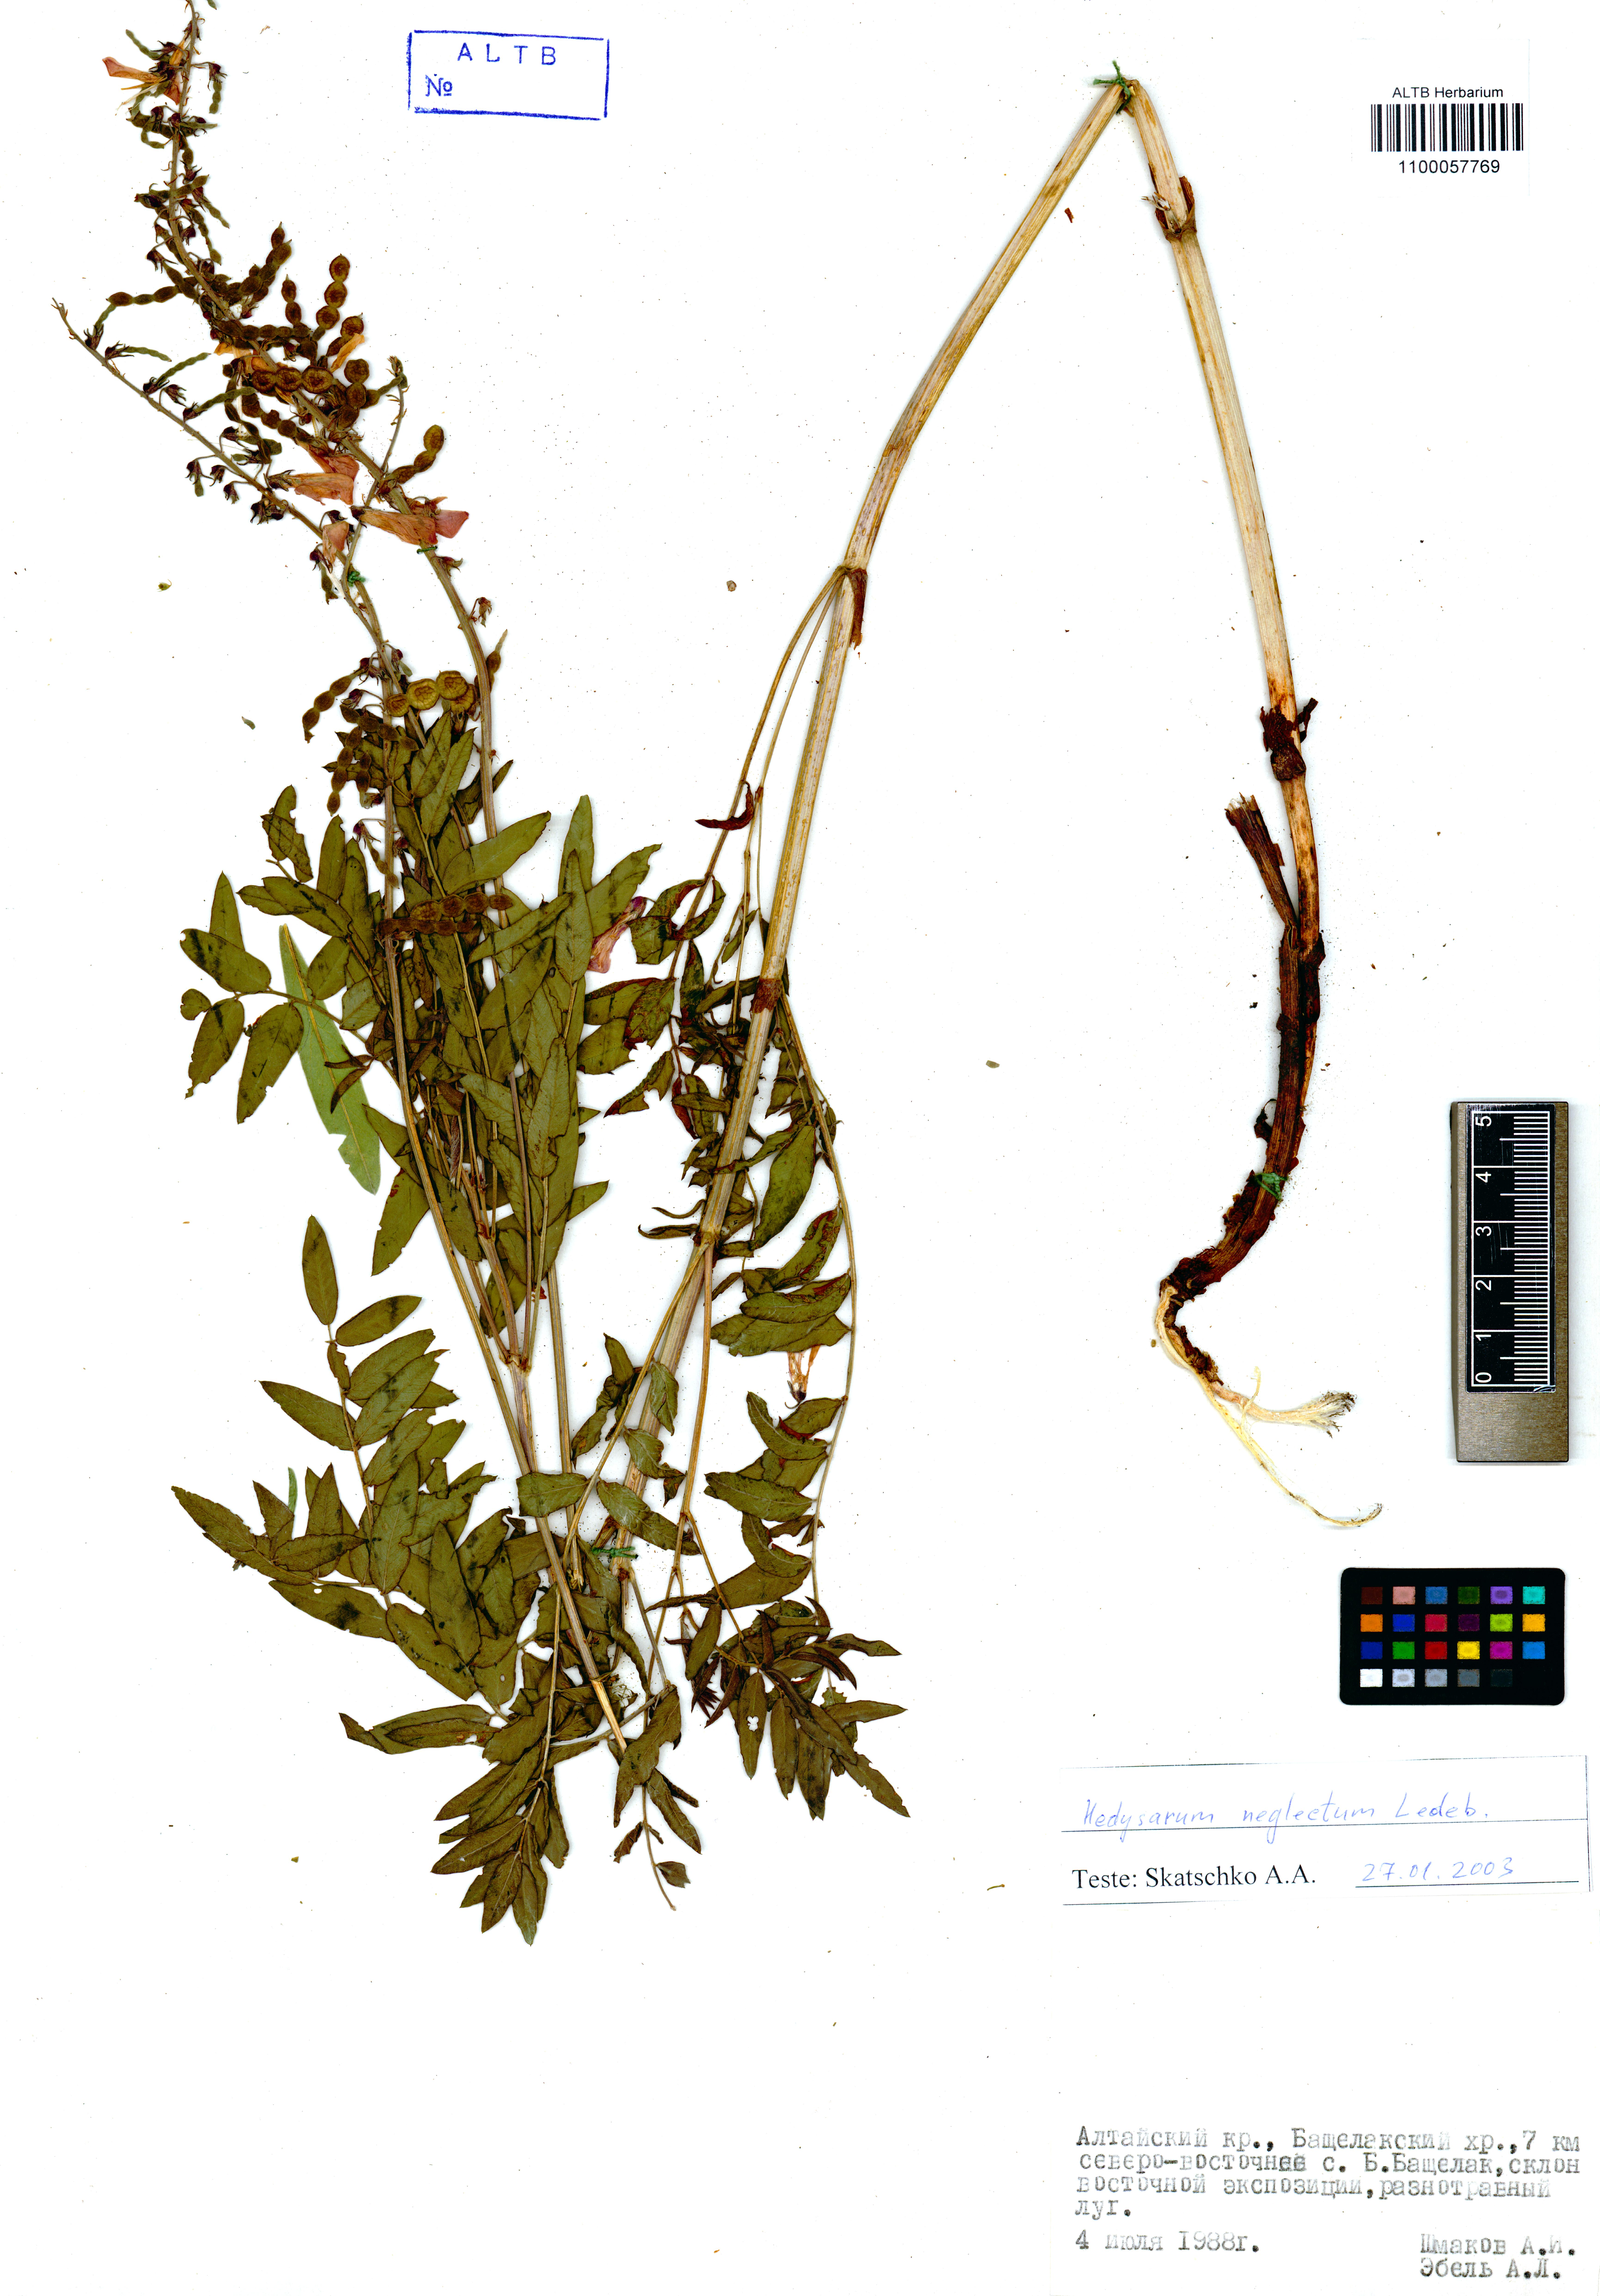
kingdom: Plantae
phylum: Tracheophyta
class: Magnoliopsida
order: Fabales
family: Fabaceae
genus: Hedysarum
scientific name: Hedysarum neglectum
